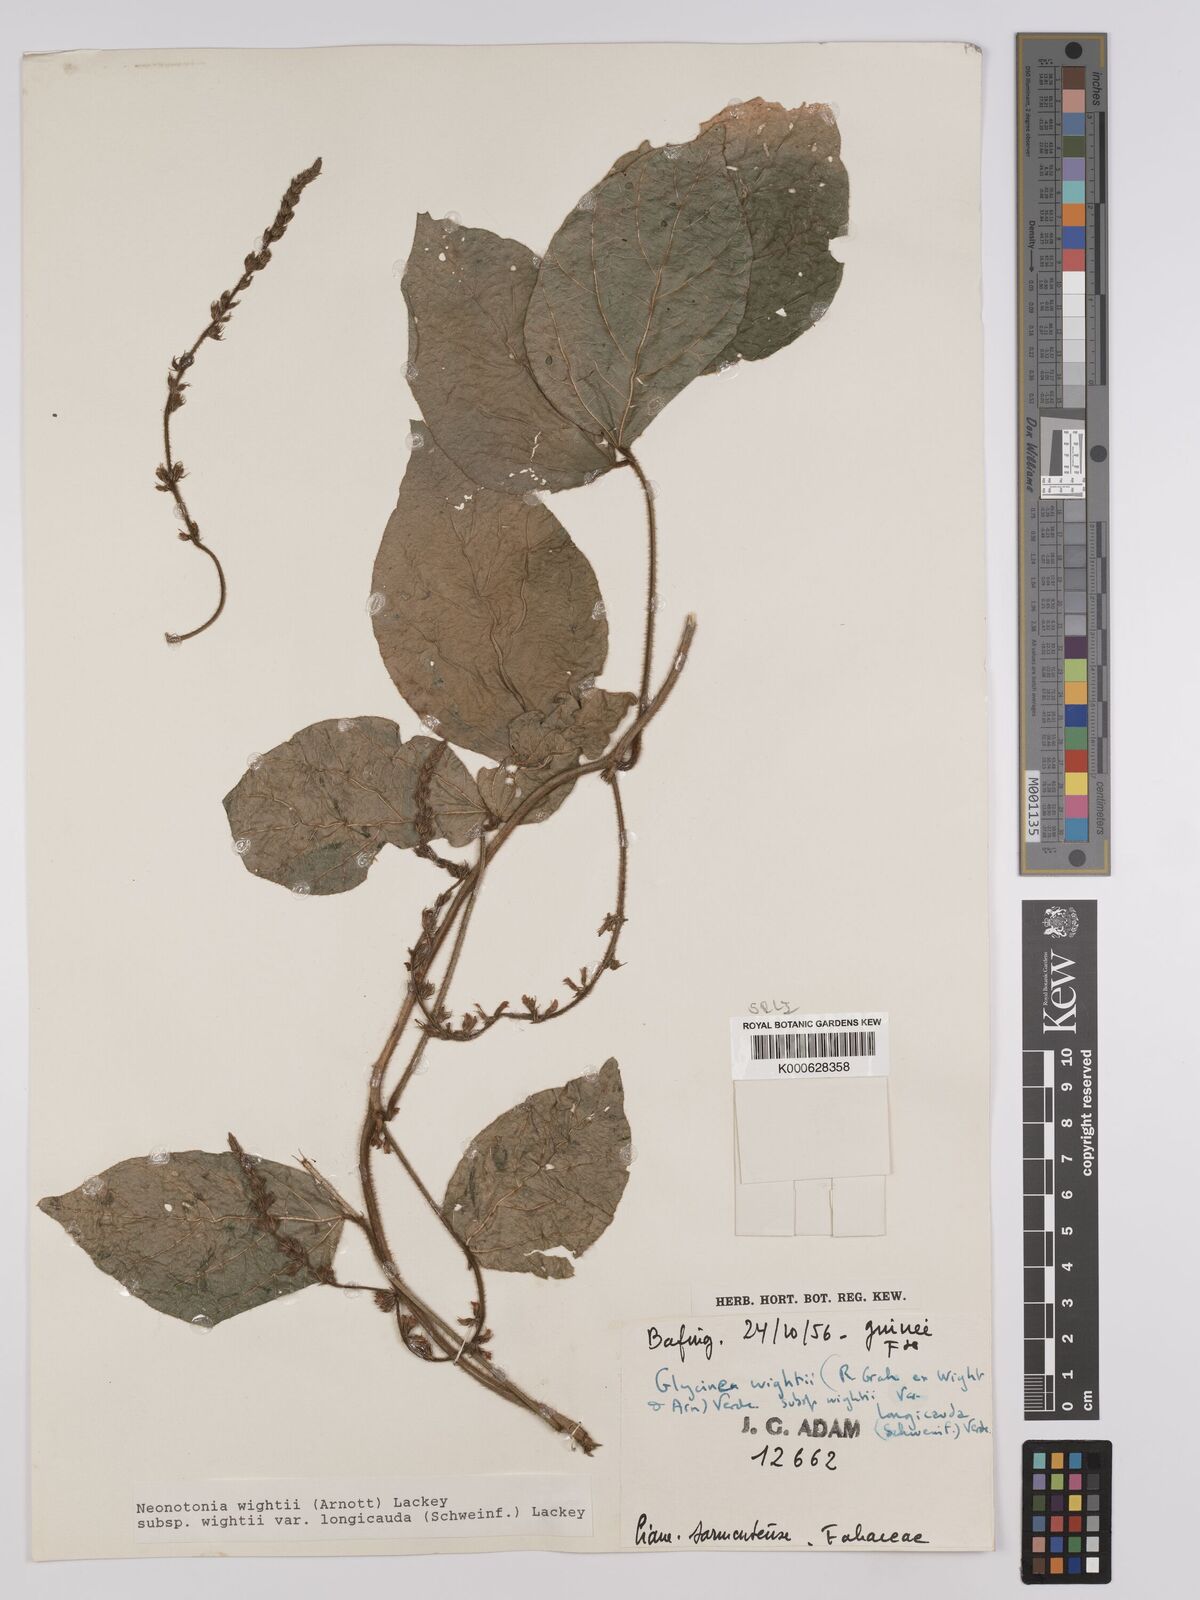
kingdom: Plantae
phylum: Tracheophyta
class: Magnoliopsida
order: Fabales
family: Fabaceae
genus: Neonotonia
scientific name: Neonotonia wightii
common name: Perennial soybean
